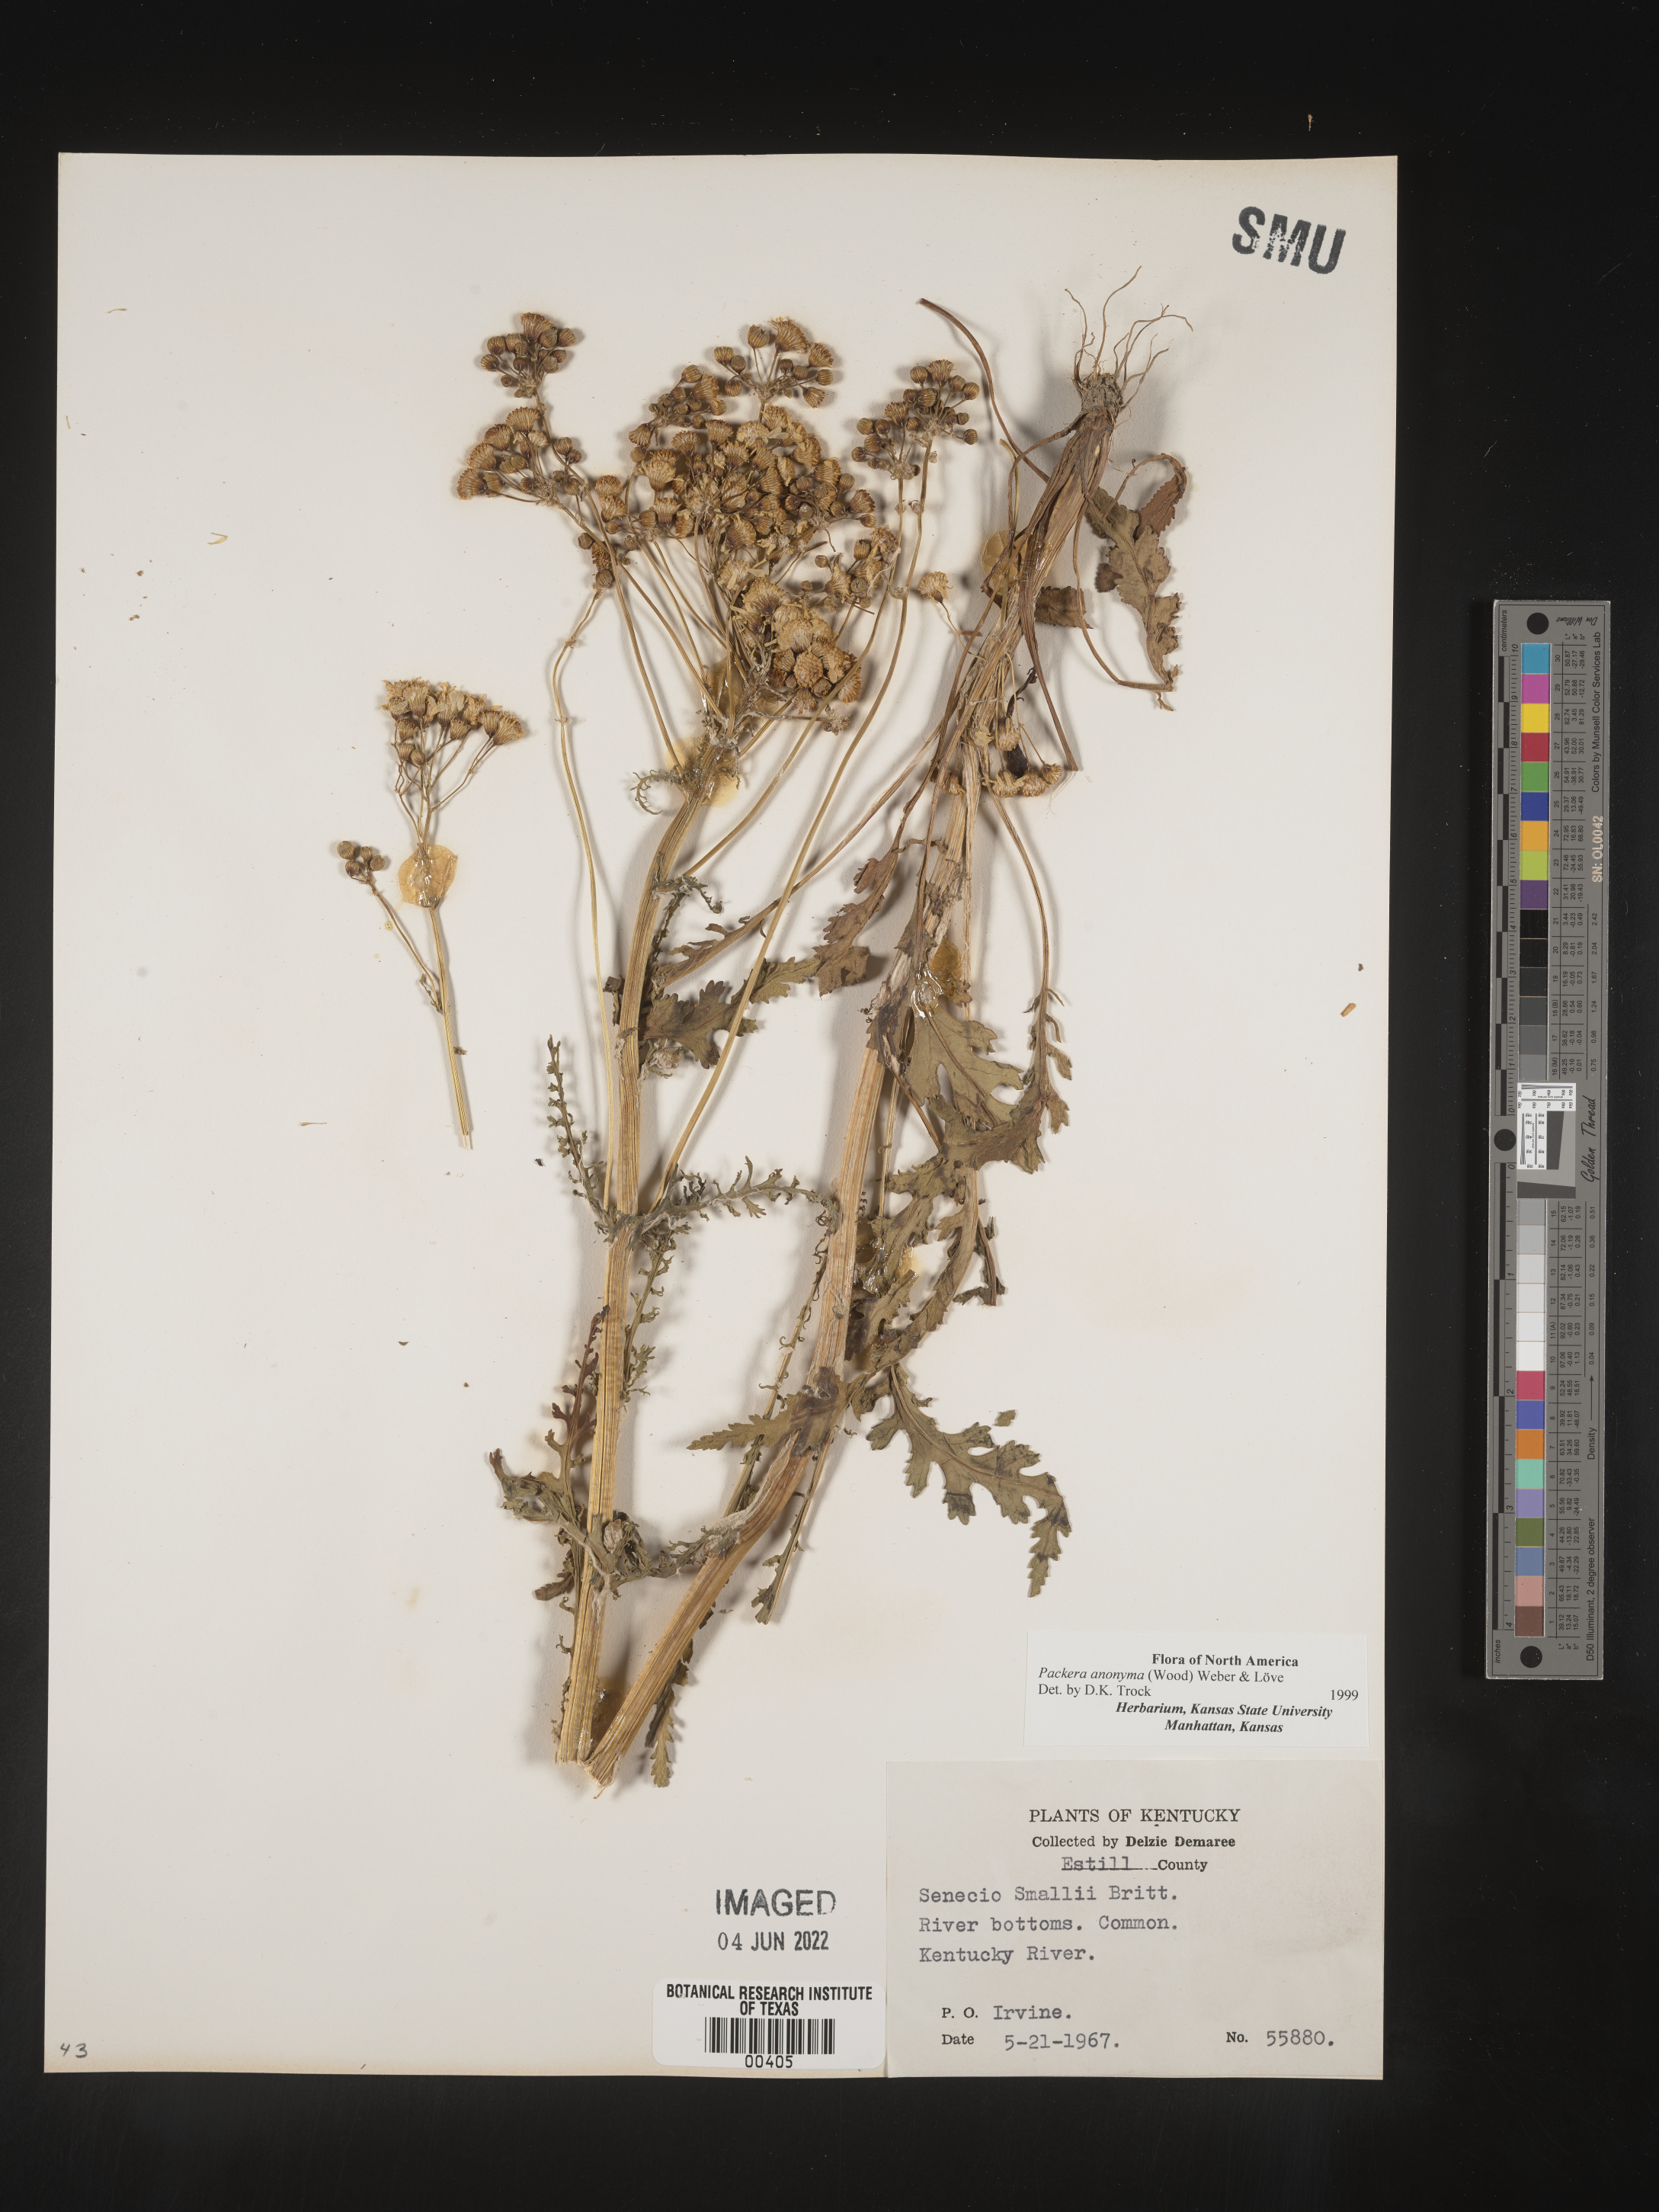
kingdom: Plantae
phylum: Tracheophyta
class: Magnoliopsida
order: Asterales
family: Asteraceae
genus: Packera
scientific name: Packera anonyma
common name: Small ragwort
